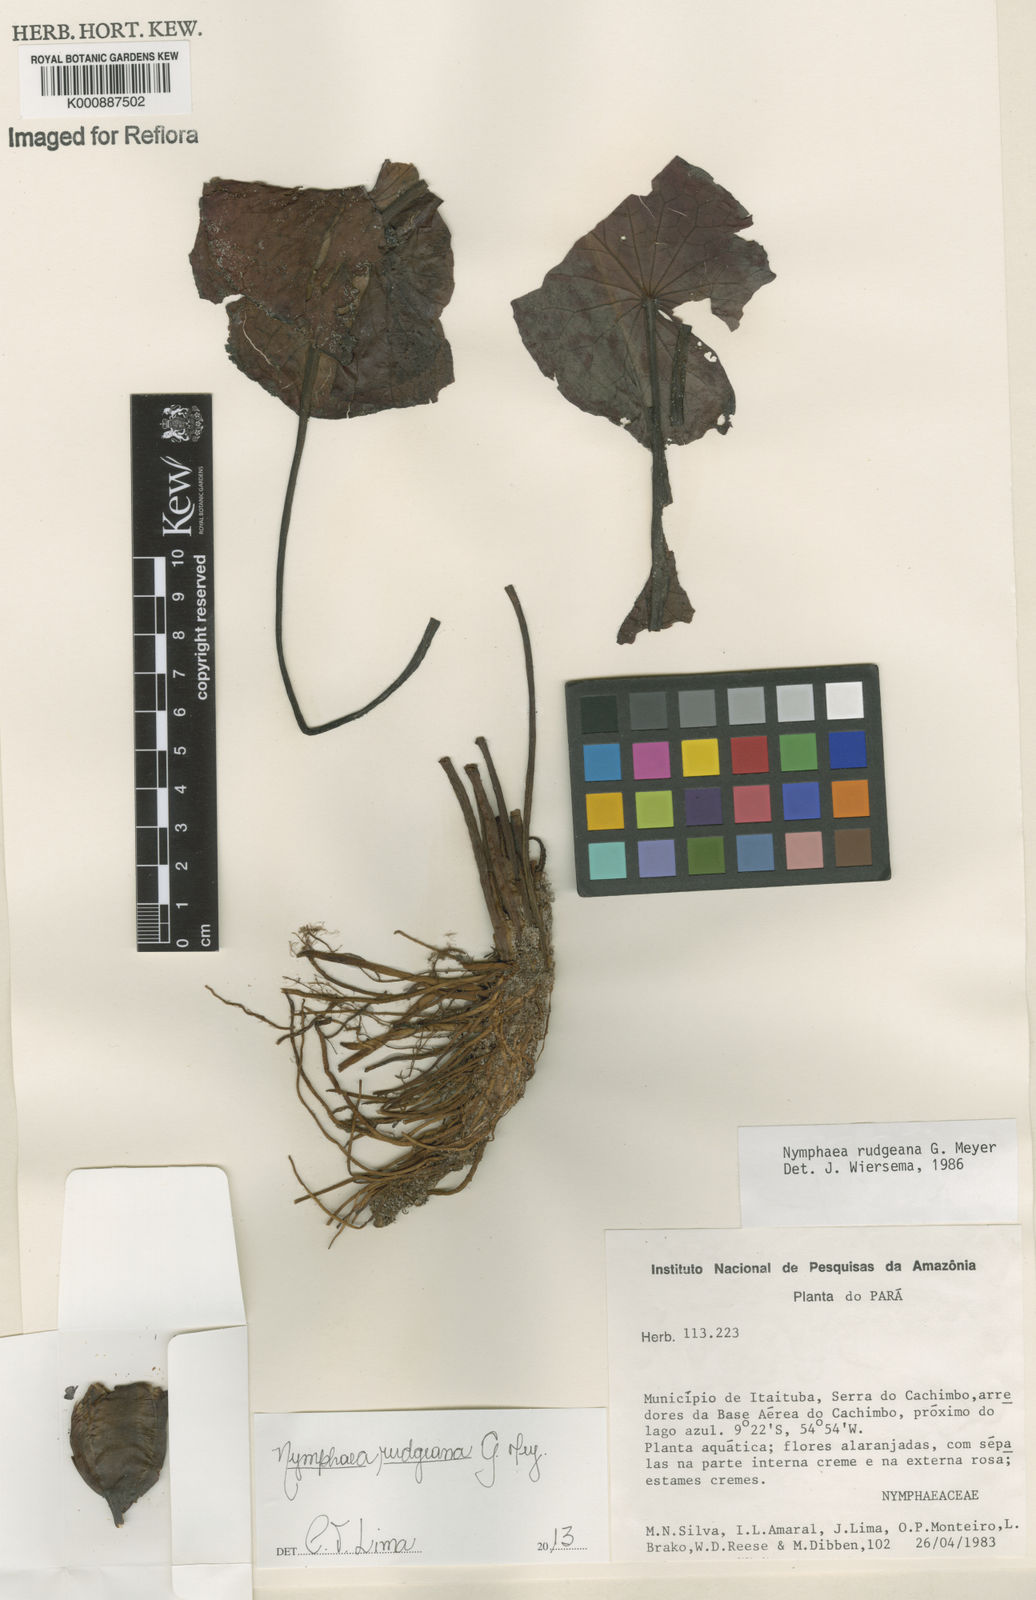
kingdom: Plantae
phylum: Tracheophyta
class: Magnoliopsida
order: Nymphaeales
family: Nymphaeaceae
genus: Nymphaea
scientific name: Nymphaea rudgeana
